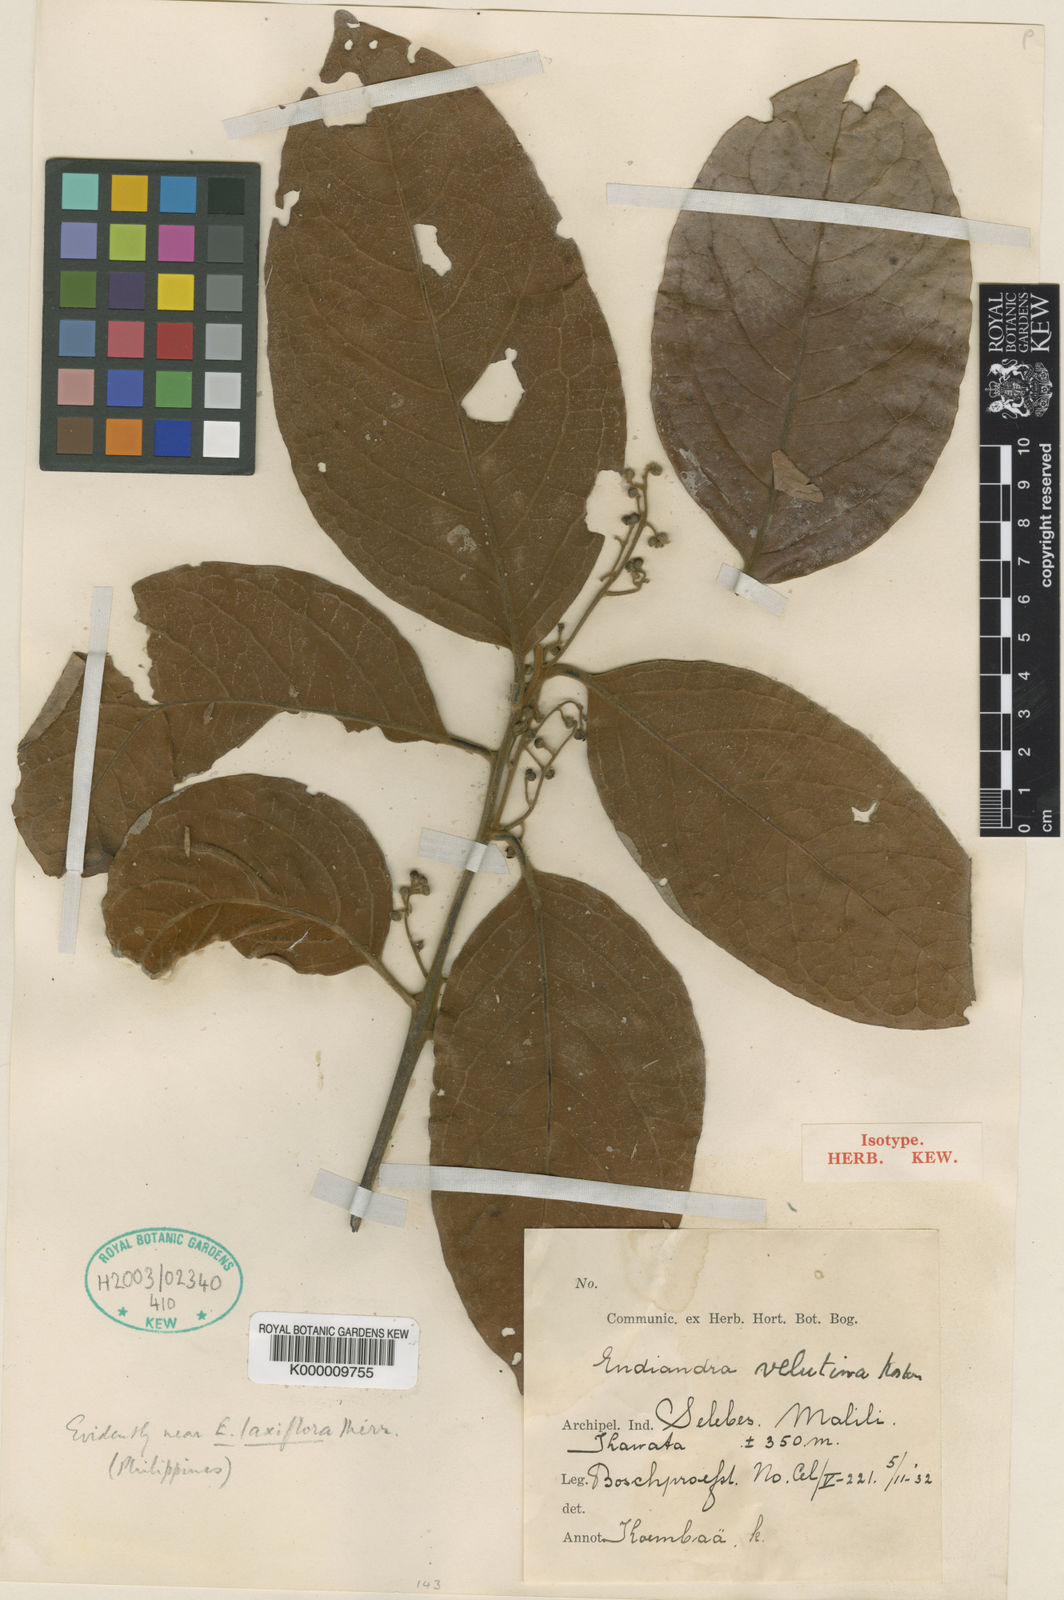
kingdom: Plantae
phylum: Tracheophyta
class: Magnoliopsida
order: Laurales
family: Lauraceae
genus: Endiandra
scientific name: Endiandra
